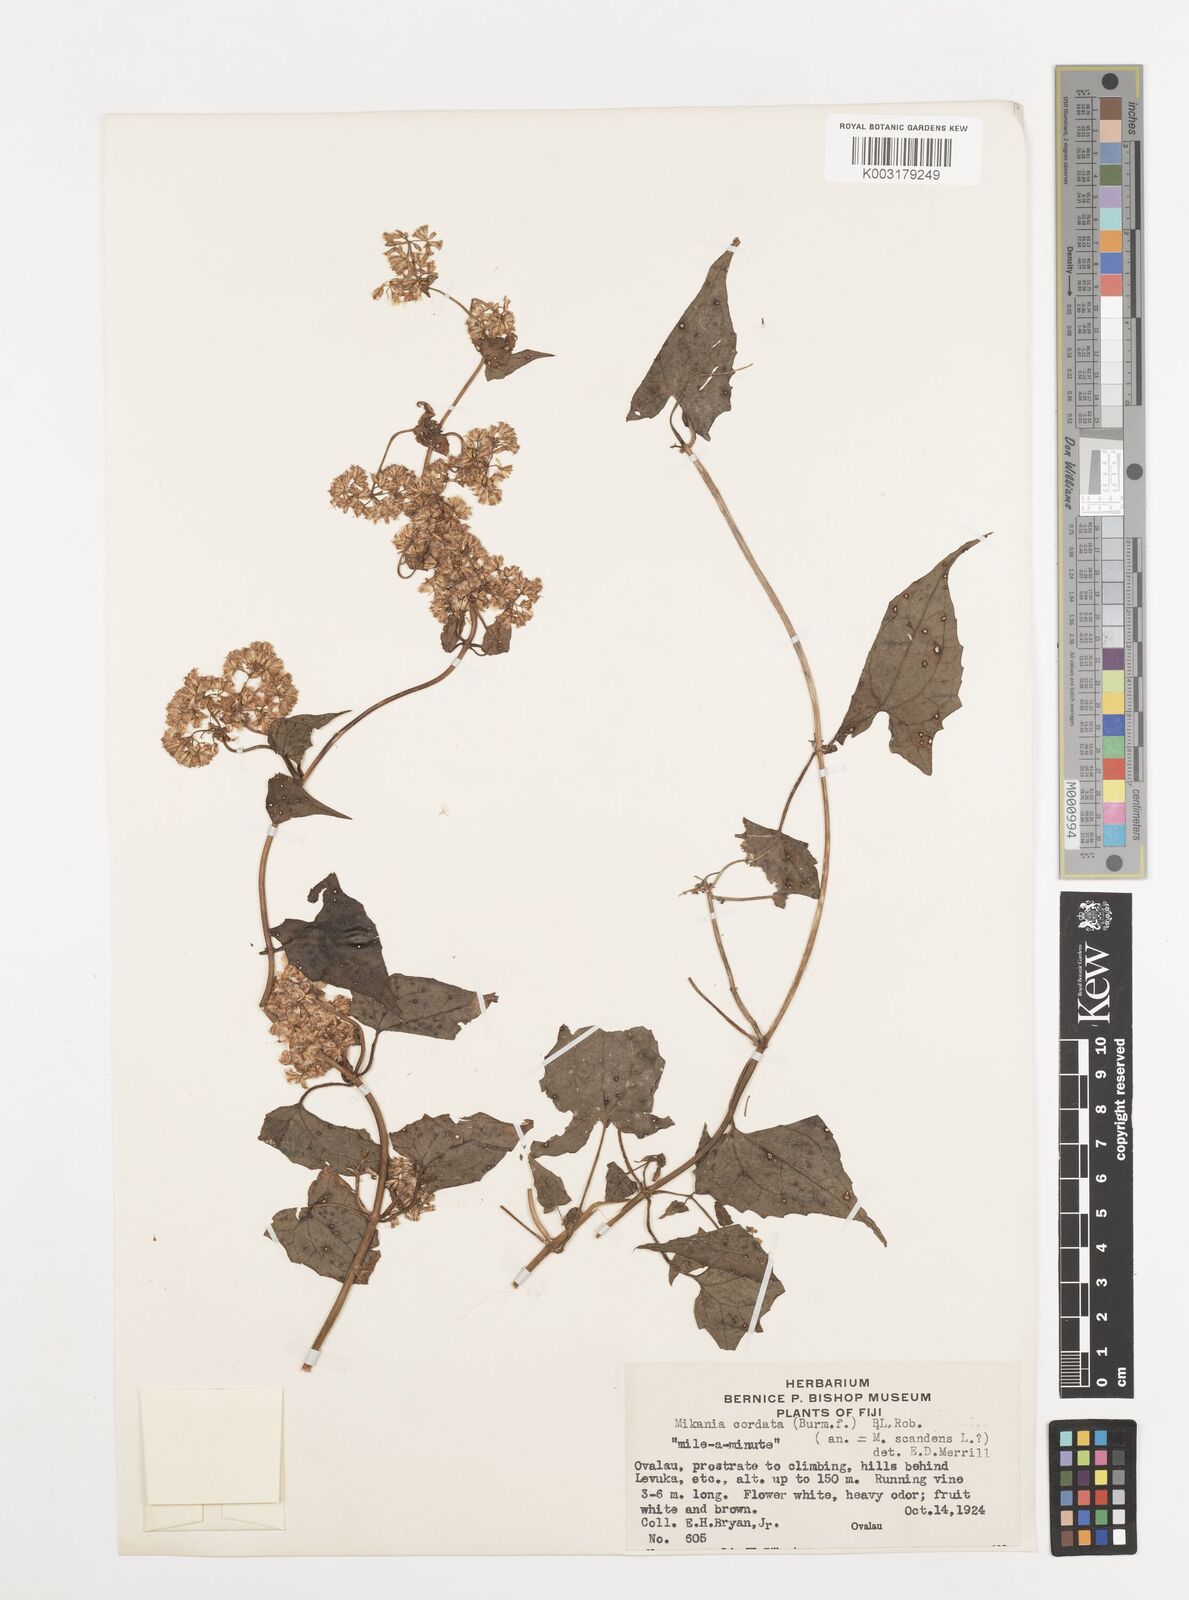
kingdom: Plantae
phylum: Tracheophyta
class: Magnoliopsida
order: Asterales
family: Asteraceae
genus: Mikania
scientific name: Mikania micrantha
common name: Mile-a-minute
